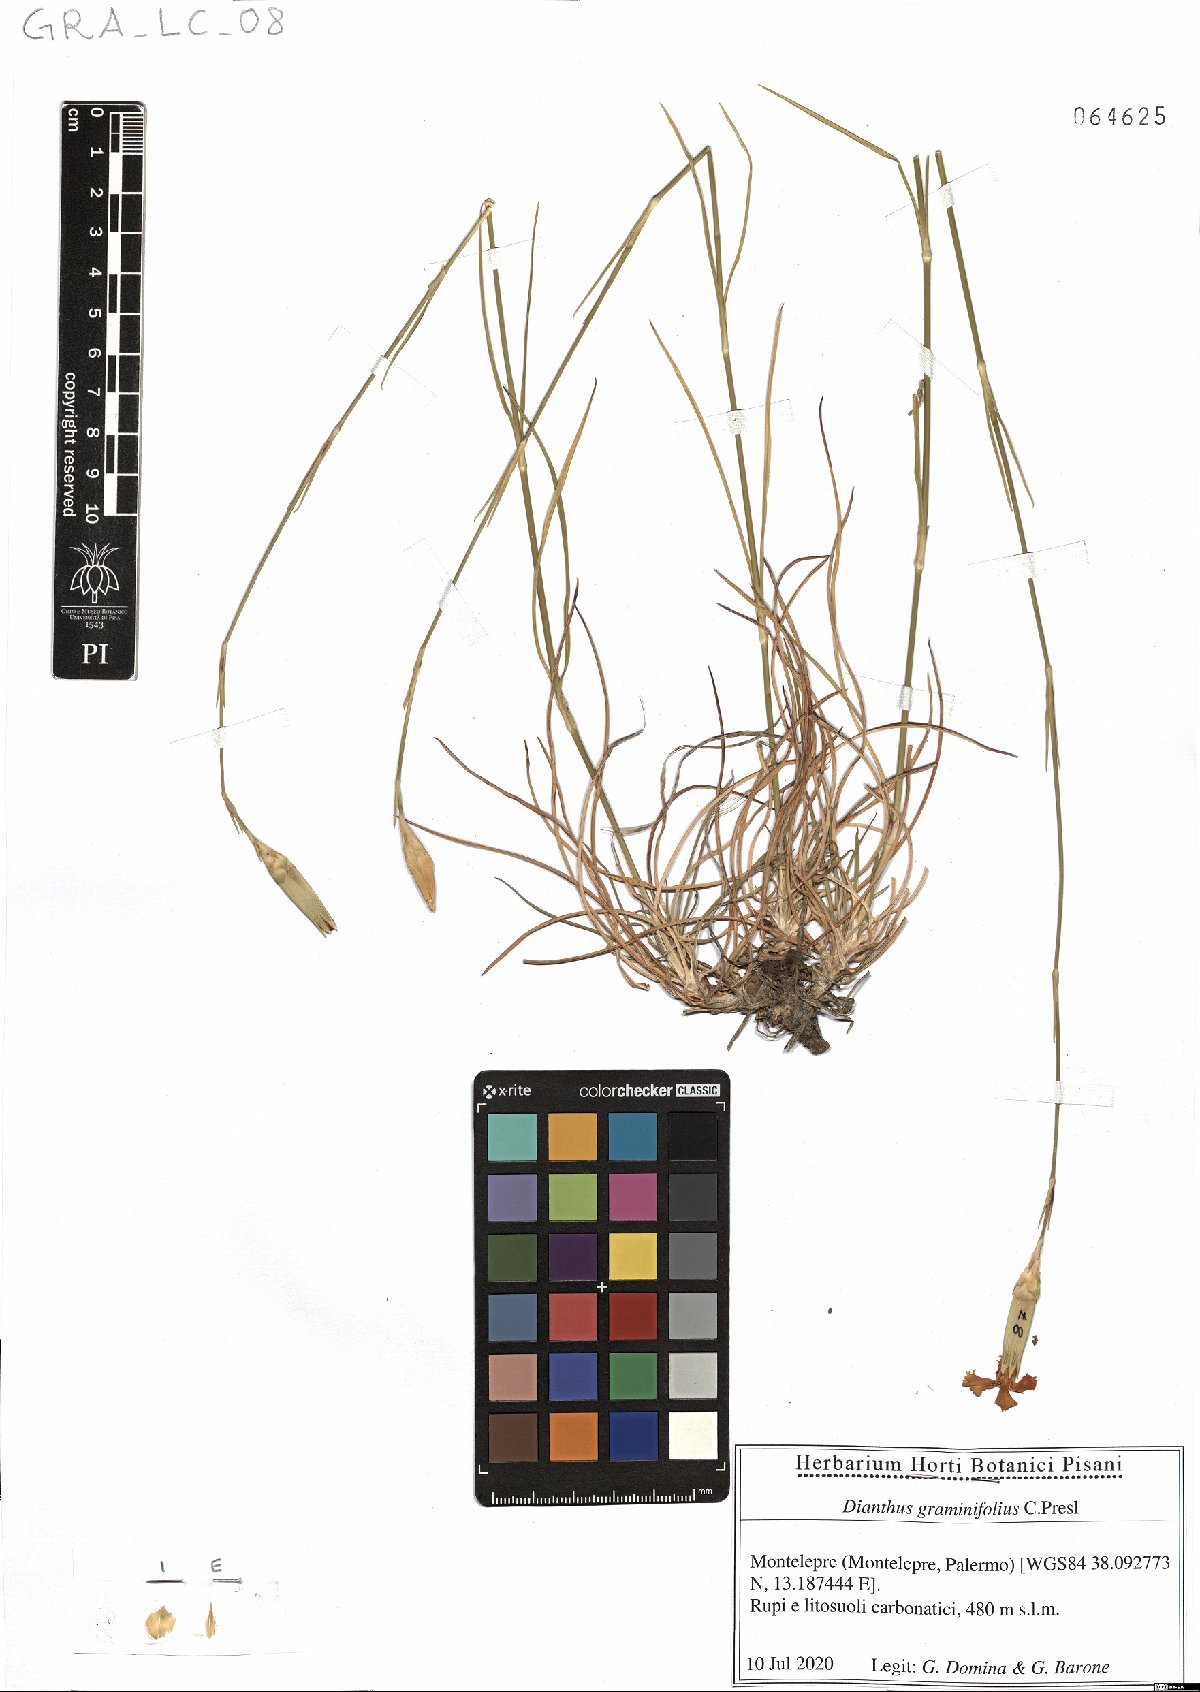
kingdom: Plantae
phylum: Tracheophyta
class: Magnoliopsida
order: Caryophyllales
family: Caryophyllaceae
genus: Dianthus
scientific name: Dianthus graminifolius
